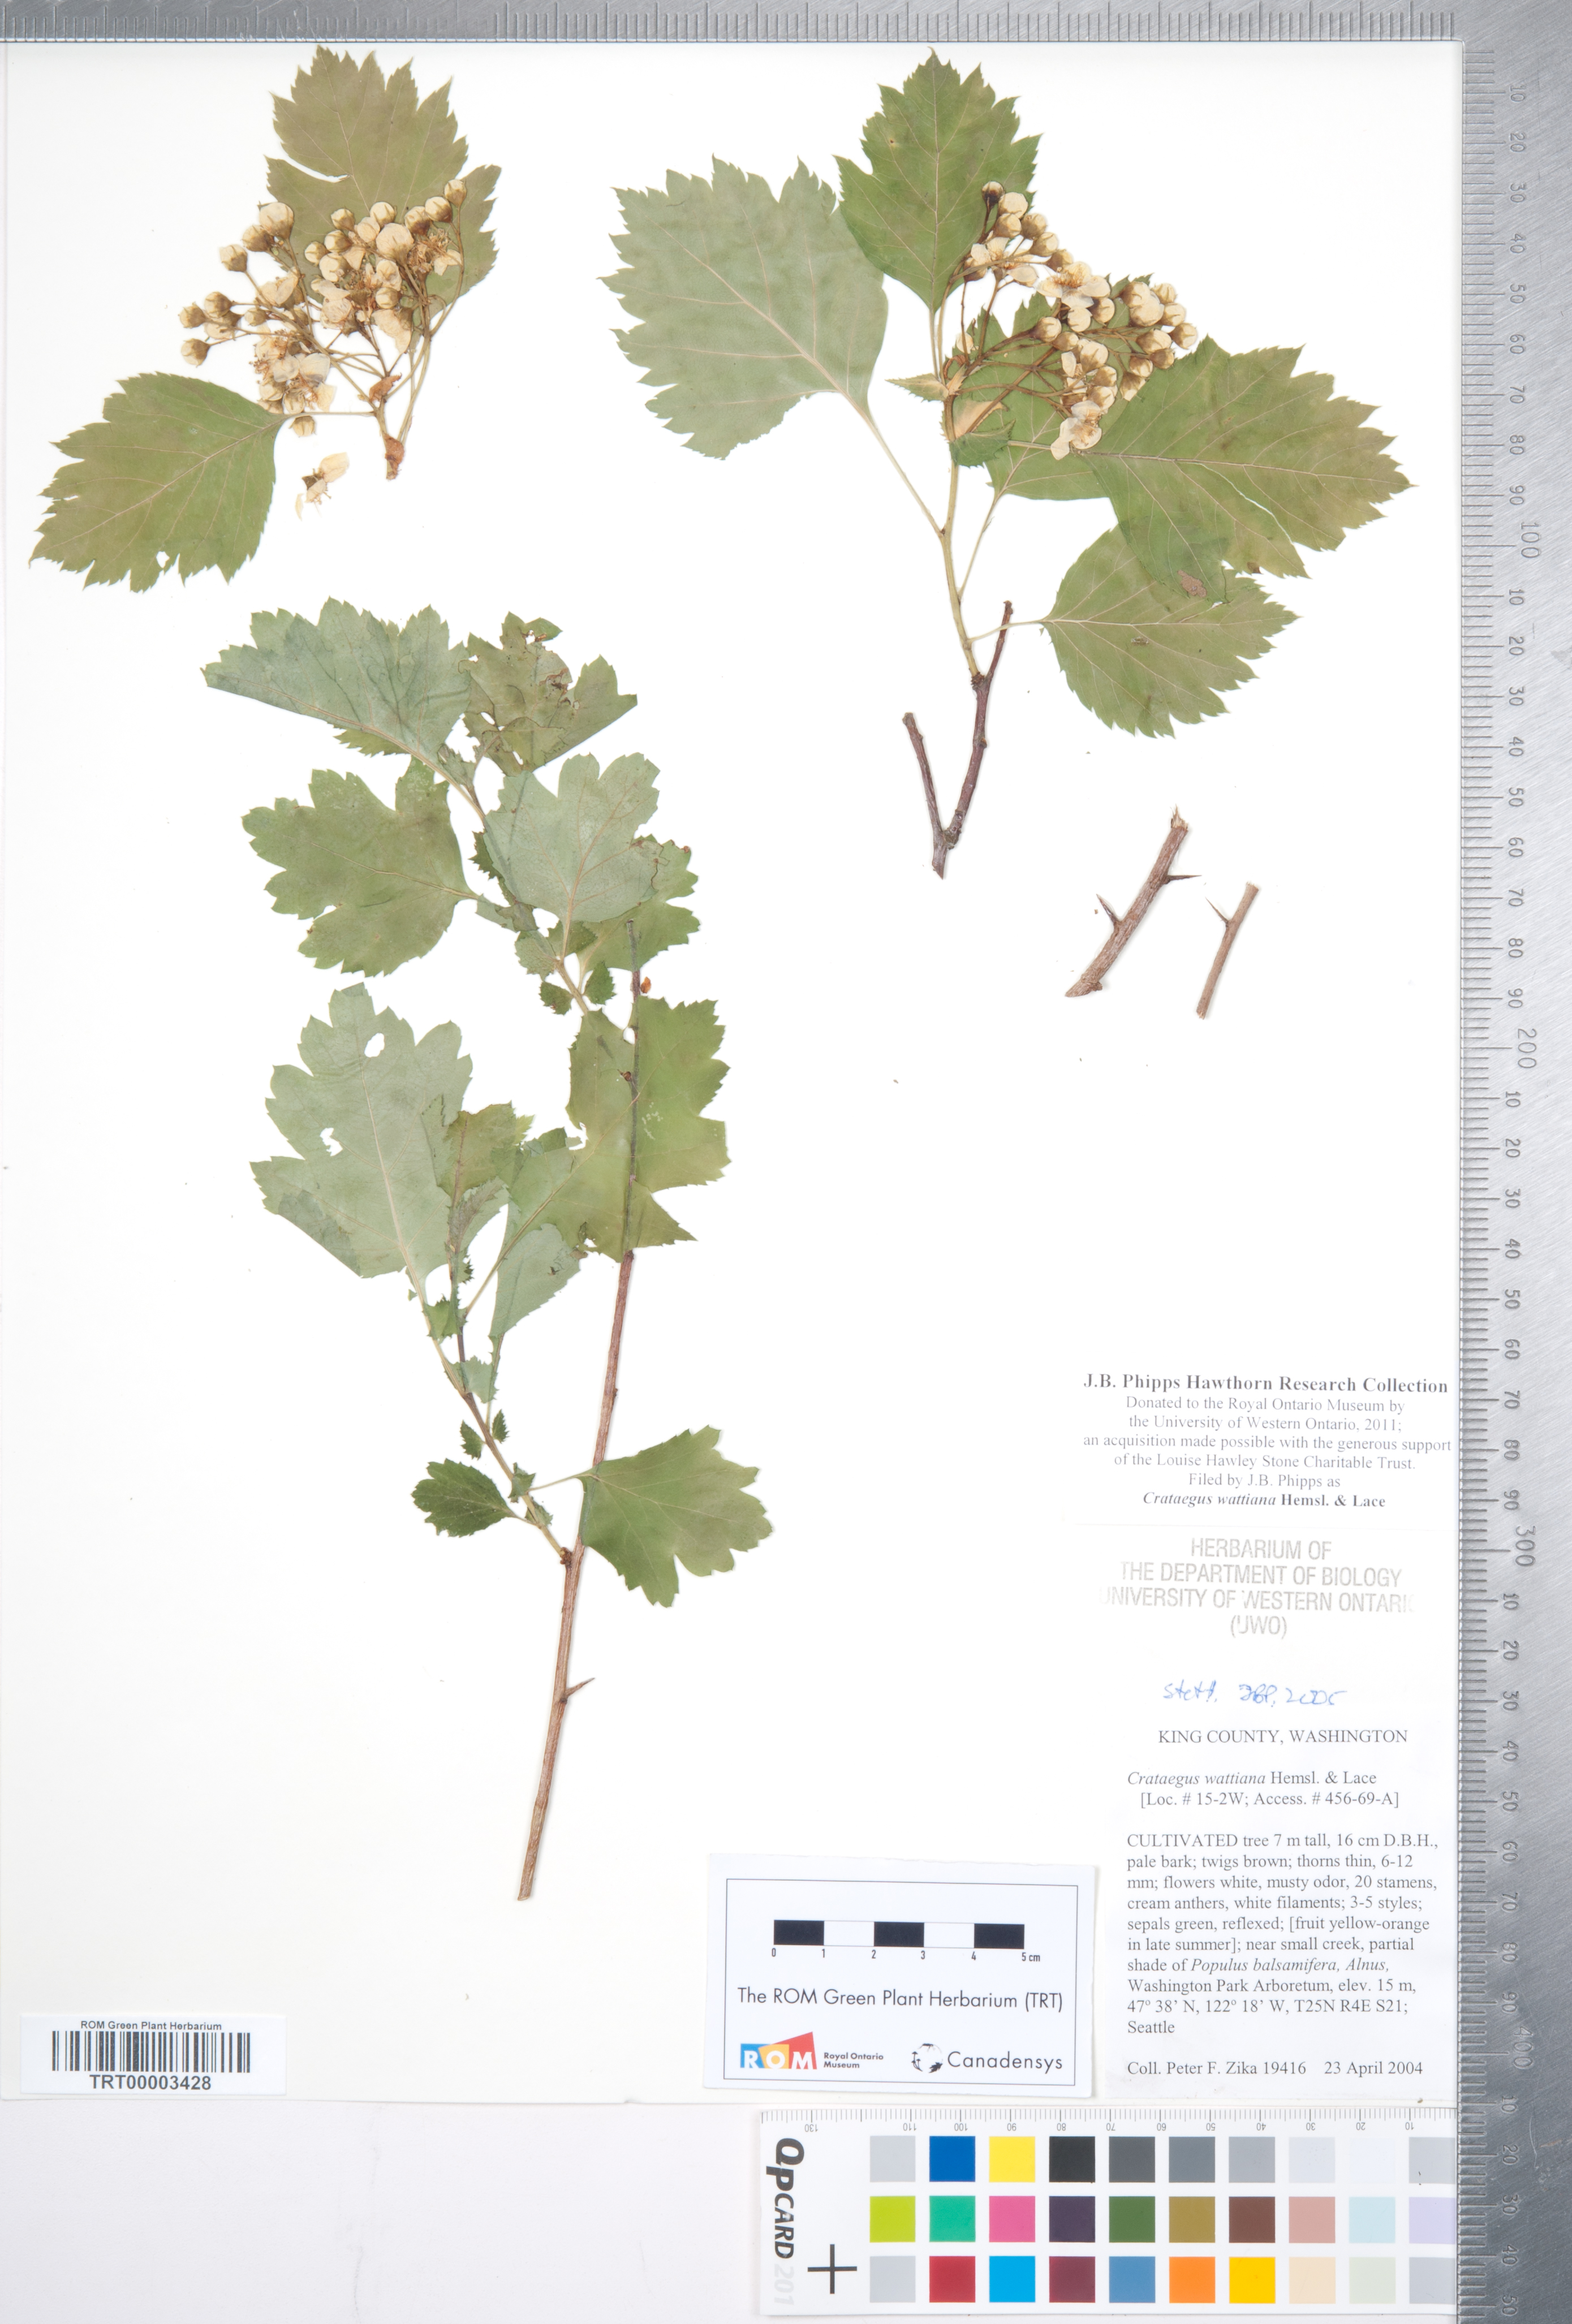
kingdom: Plantae
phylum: Tracheophyta
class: Magnoliopsida
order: Rosales
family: Rosaceae
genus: Crataegus
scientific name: Crataegus chlorocarpa
